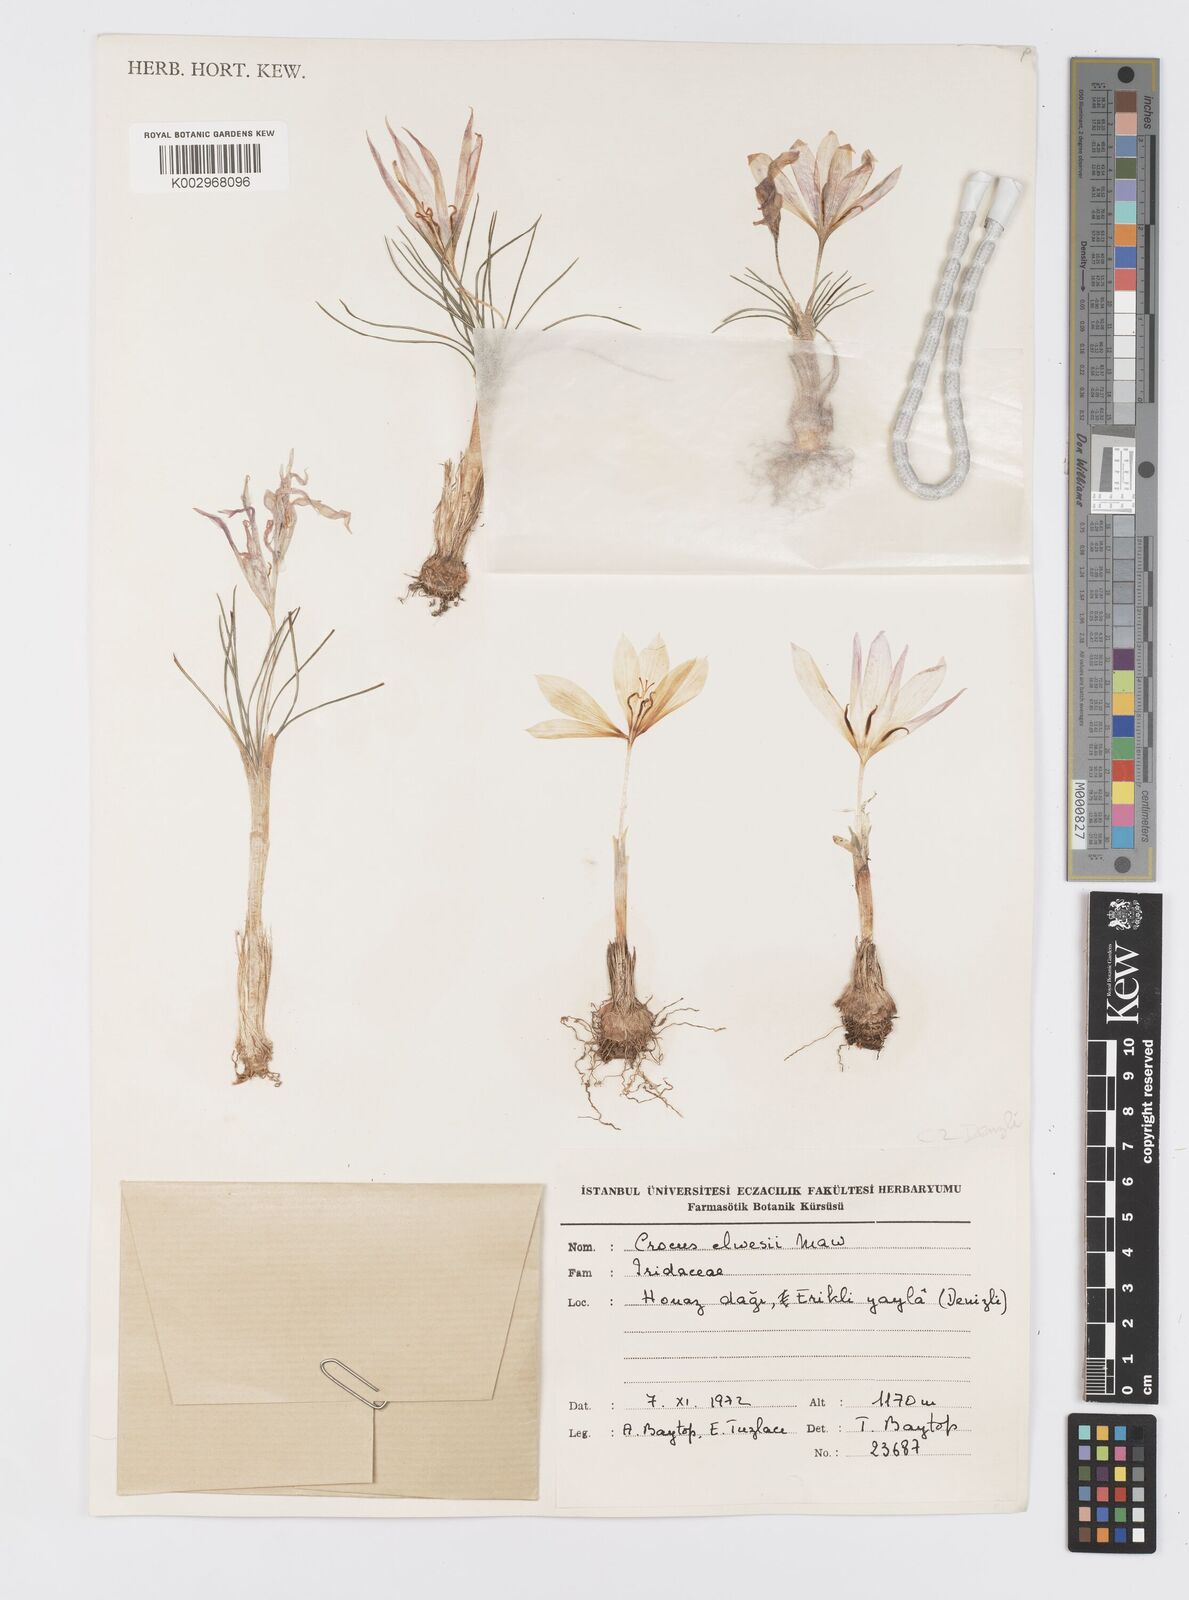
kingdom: Plantae
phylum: Tracheophyta
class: Liliopsida
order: Asparagales
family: Iridaceae
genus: Crocus
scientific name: Crocus
